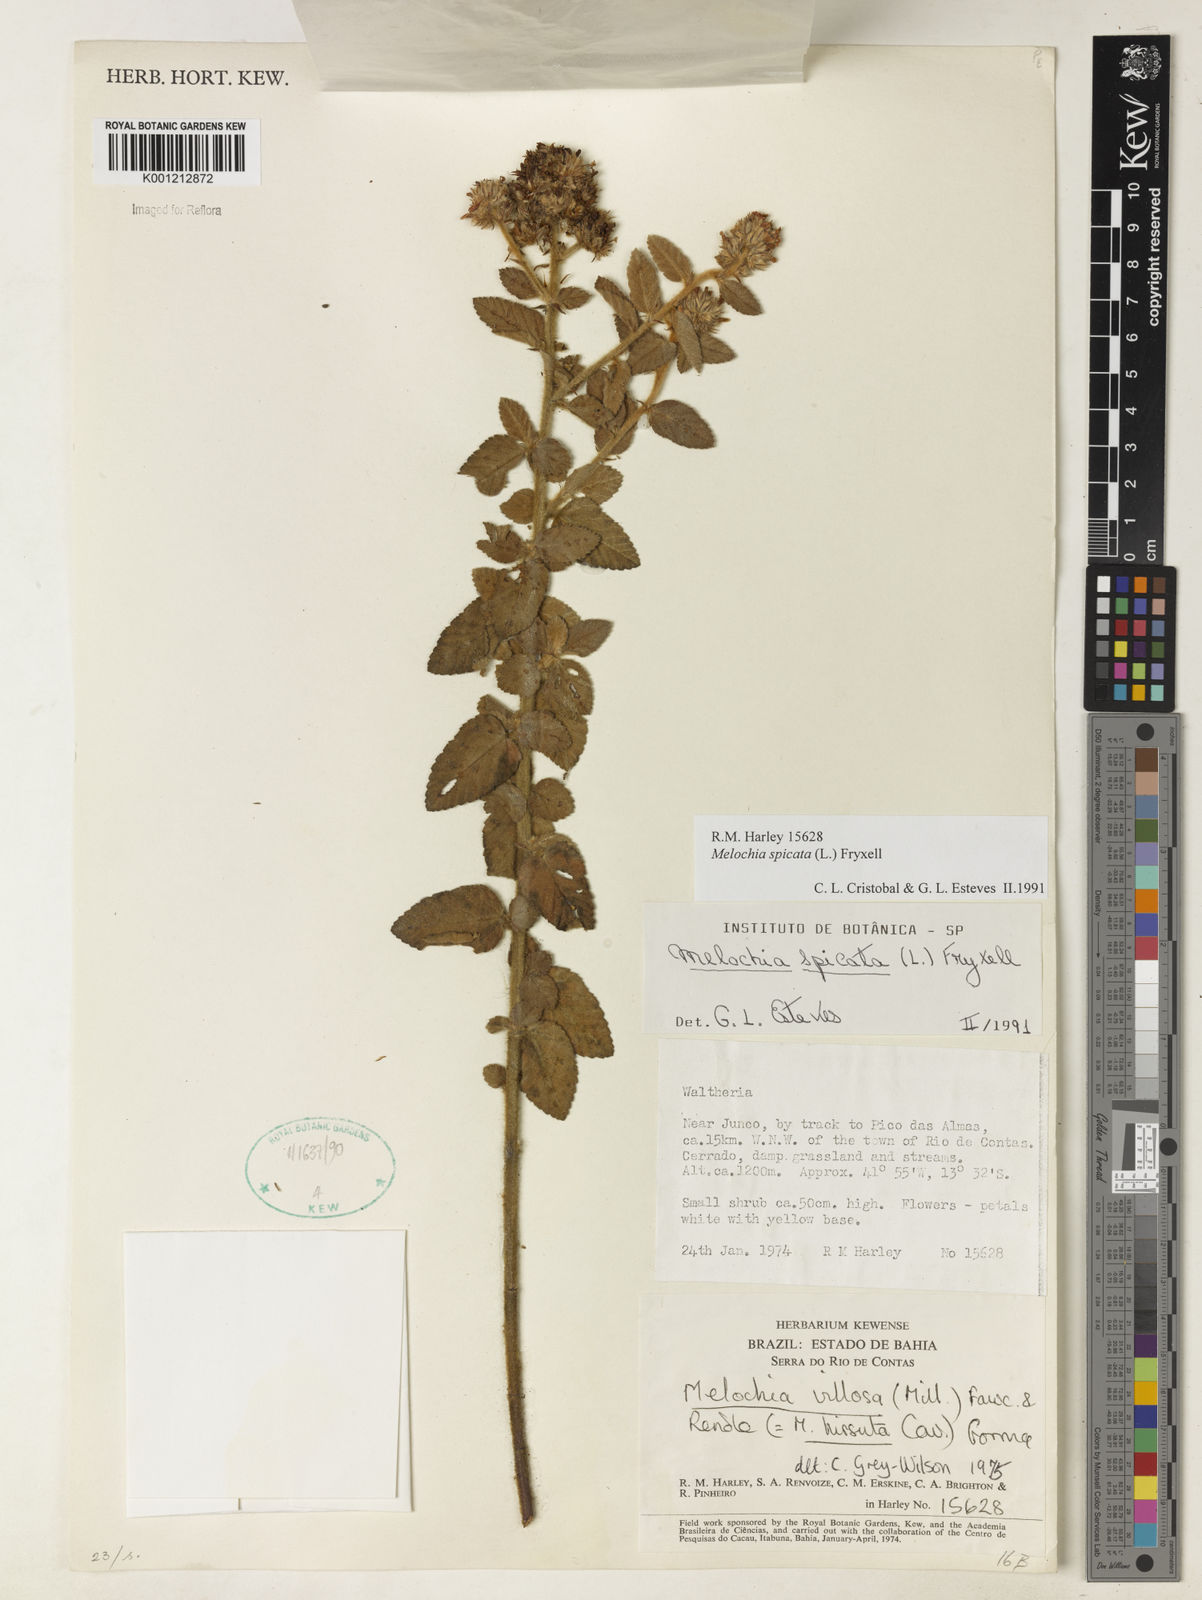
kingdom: Plantae
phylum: Tracheophyta
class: Magnoliopsida
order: Malvales
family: Malvaceae
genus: Melochia
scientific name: Melochia spicata
